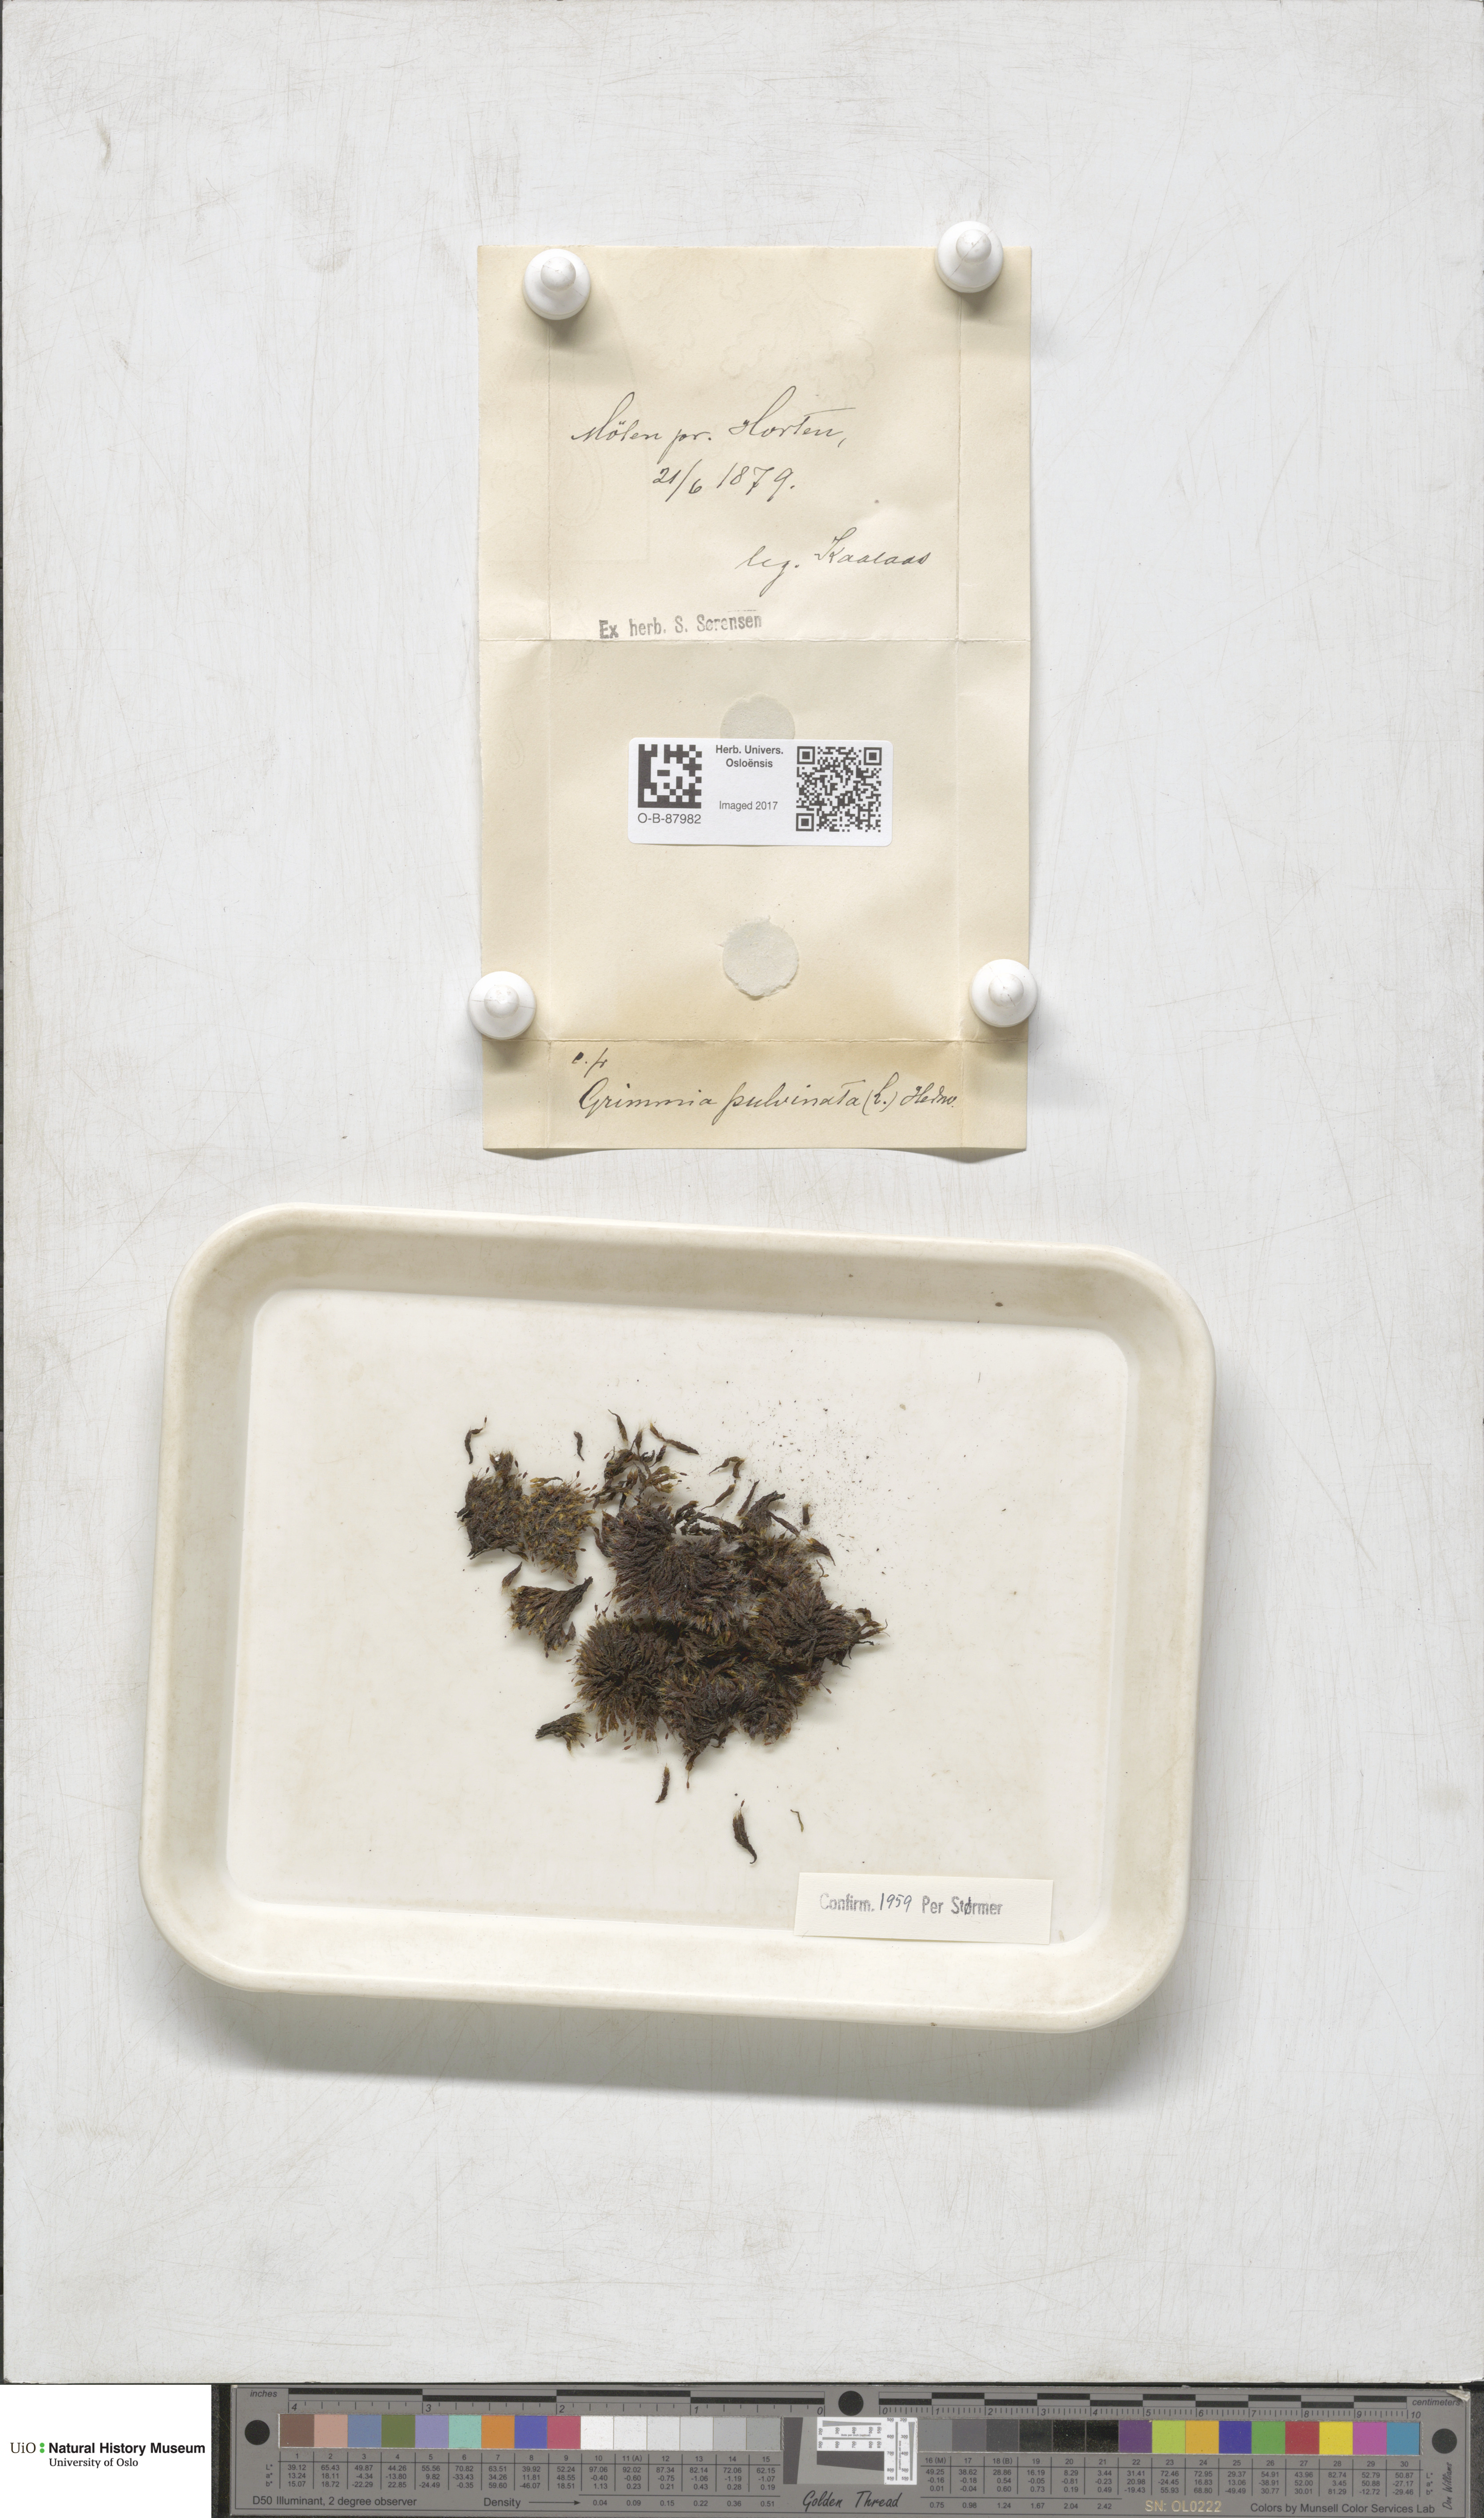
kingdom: Plantae
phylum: Bryophyta
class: Bryopsida
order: Grimmiales
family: Grimmiaceae
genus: Grimmia
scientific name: Grimmia pulvinata
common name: Grey-cushioned grimmia
